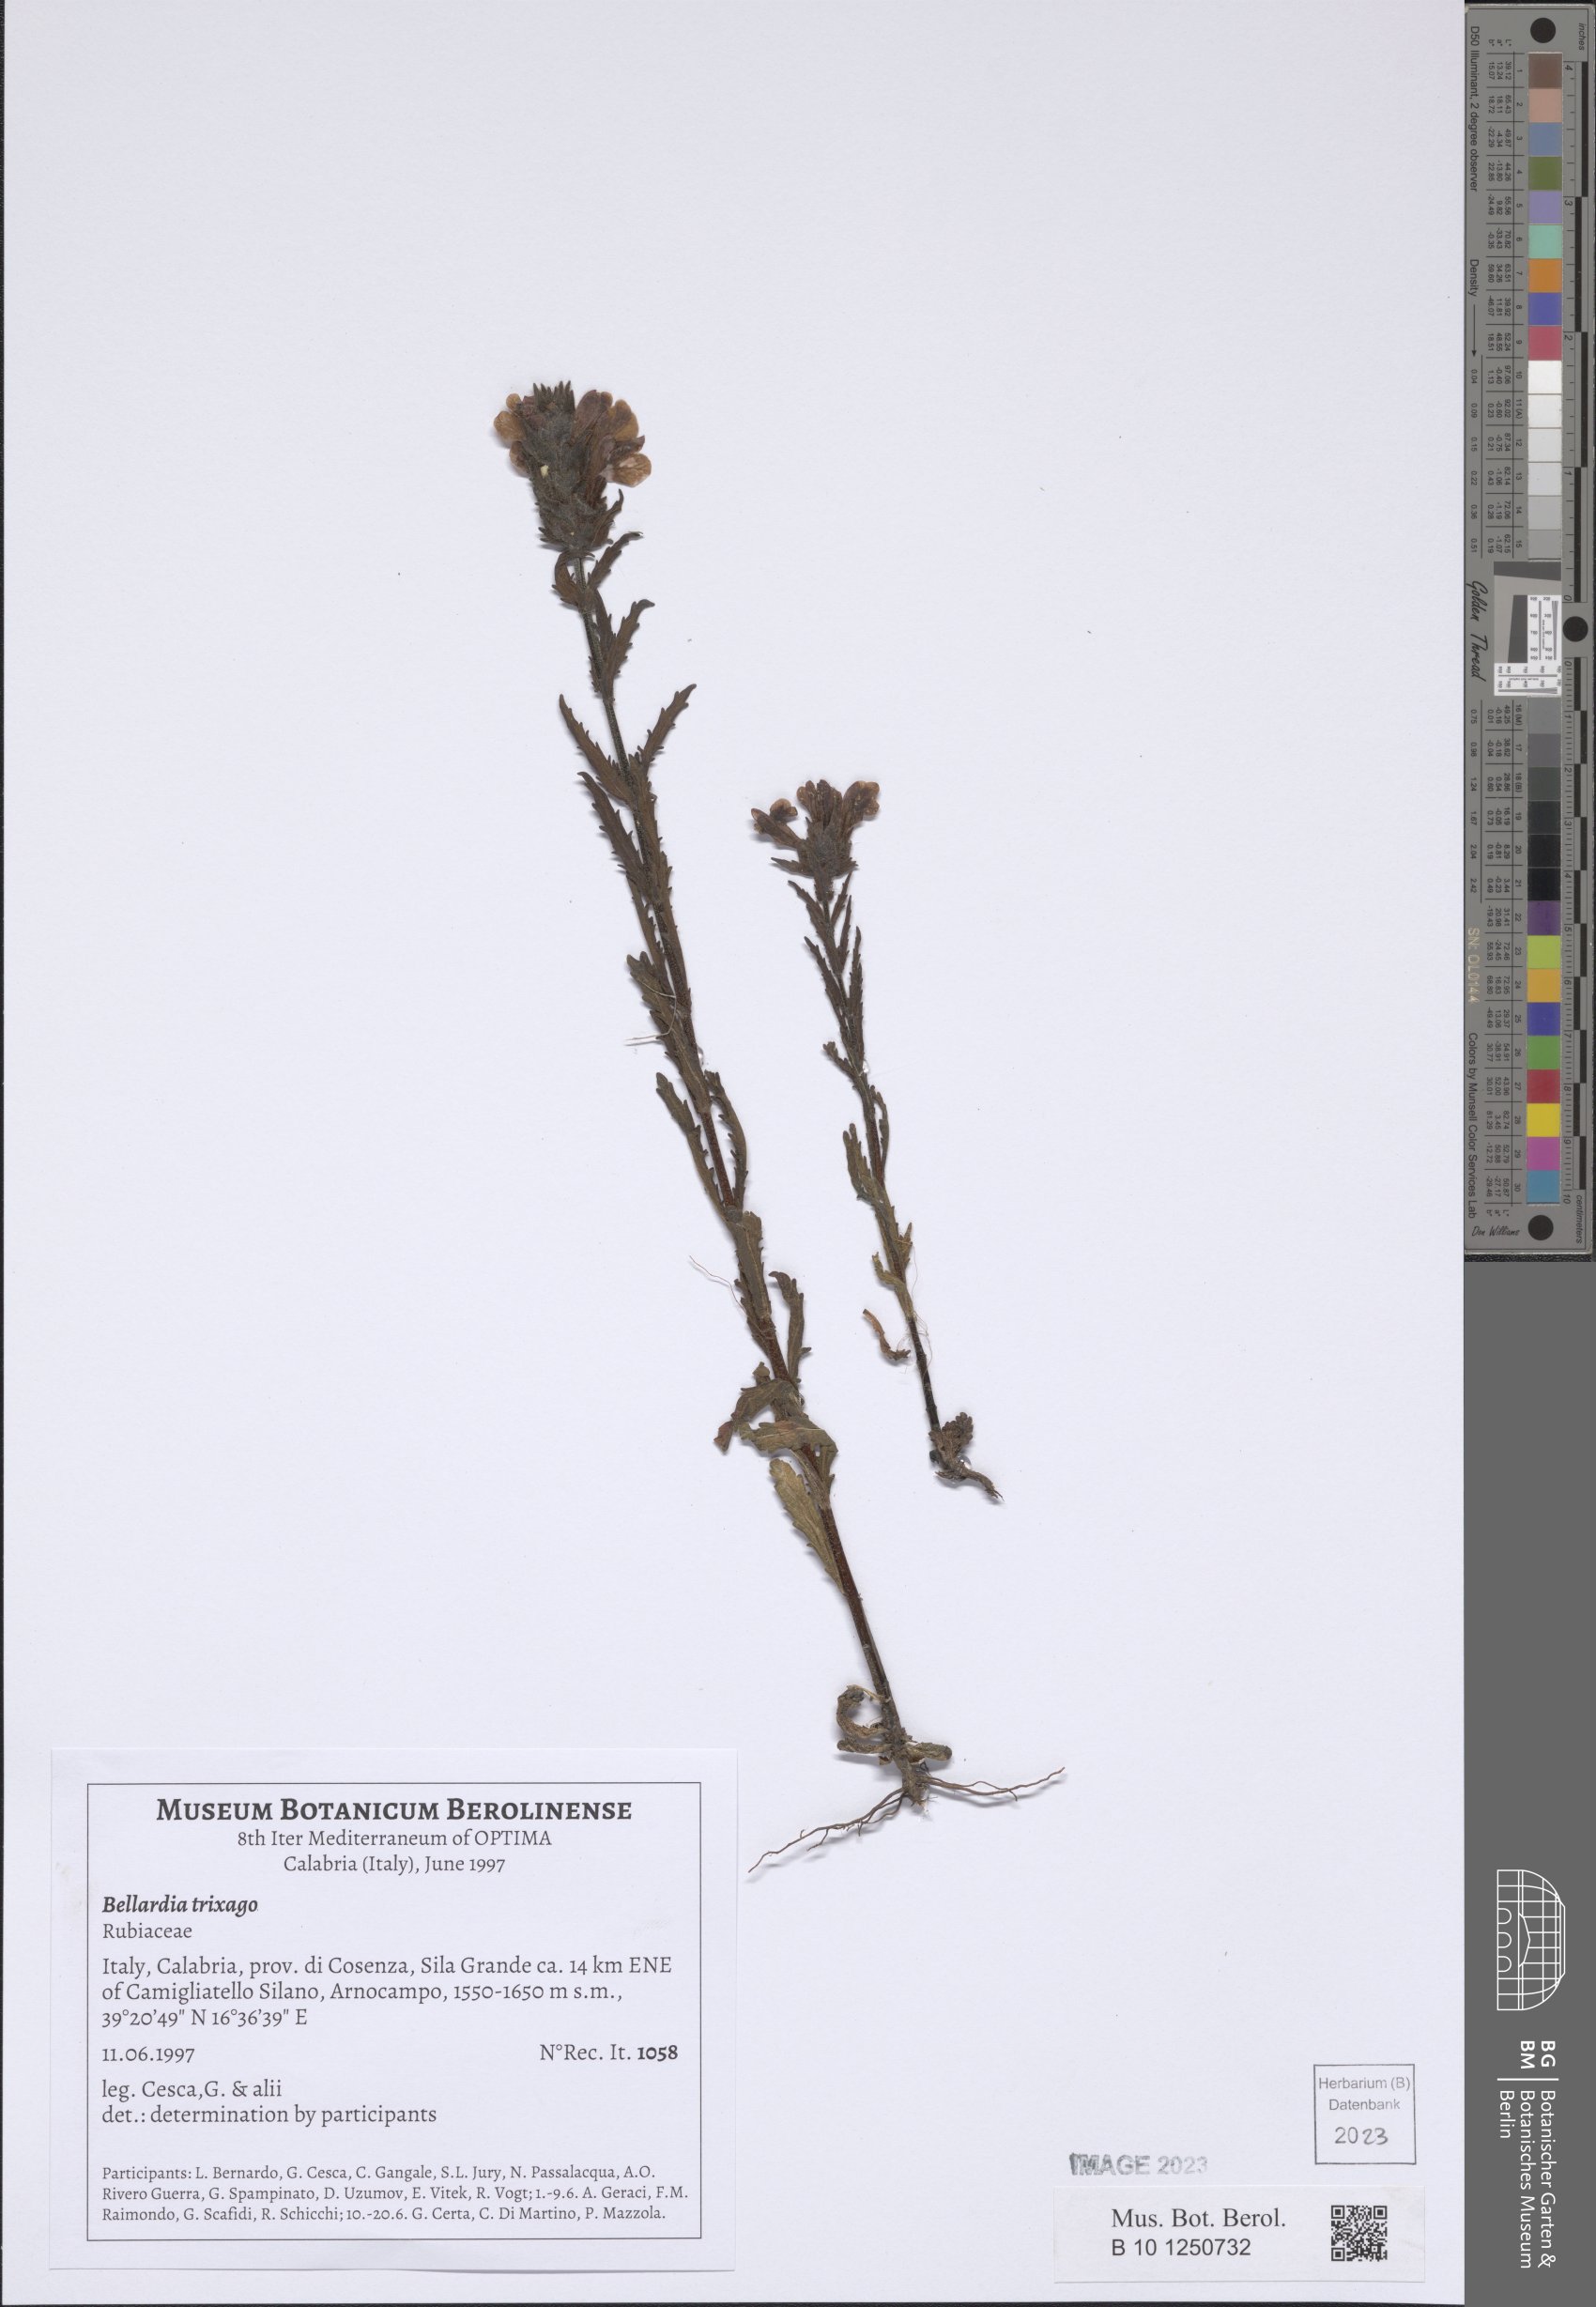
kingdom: Plantae
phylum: Tracheophyta
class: Magnoliopsida
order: Lamiales
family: Orobanchaceae
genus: Bellardia
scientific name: Bellardia trixago
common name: Mediterranean lineseed
